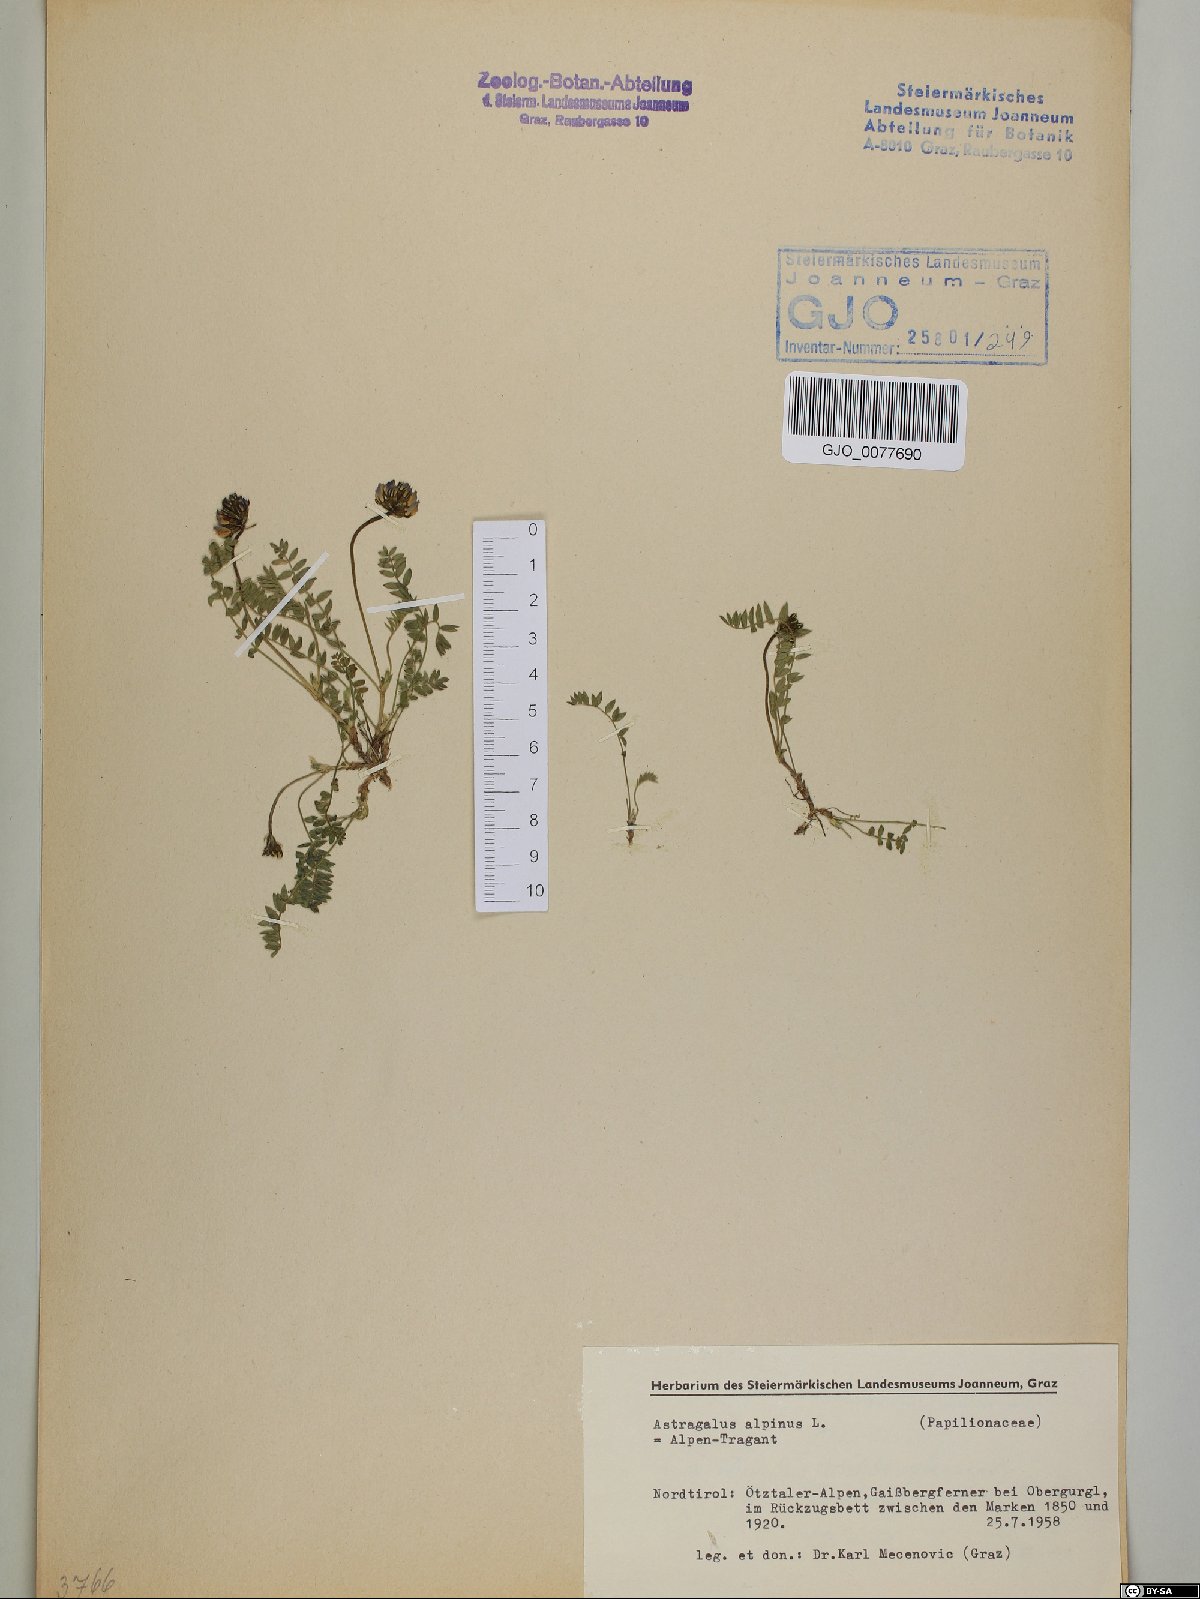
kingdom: Plantae
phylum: Tracheophyta
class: Magnoliopsida
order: Fabales
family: Fabaceae
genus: Astragalus
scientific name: Astragalus alpinus
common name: Alpine milk-vetch
